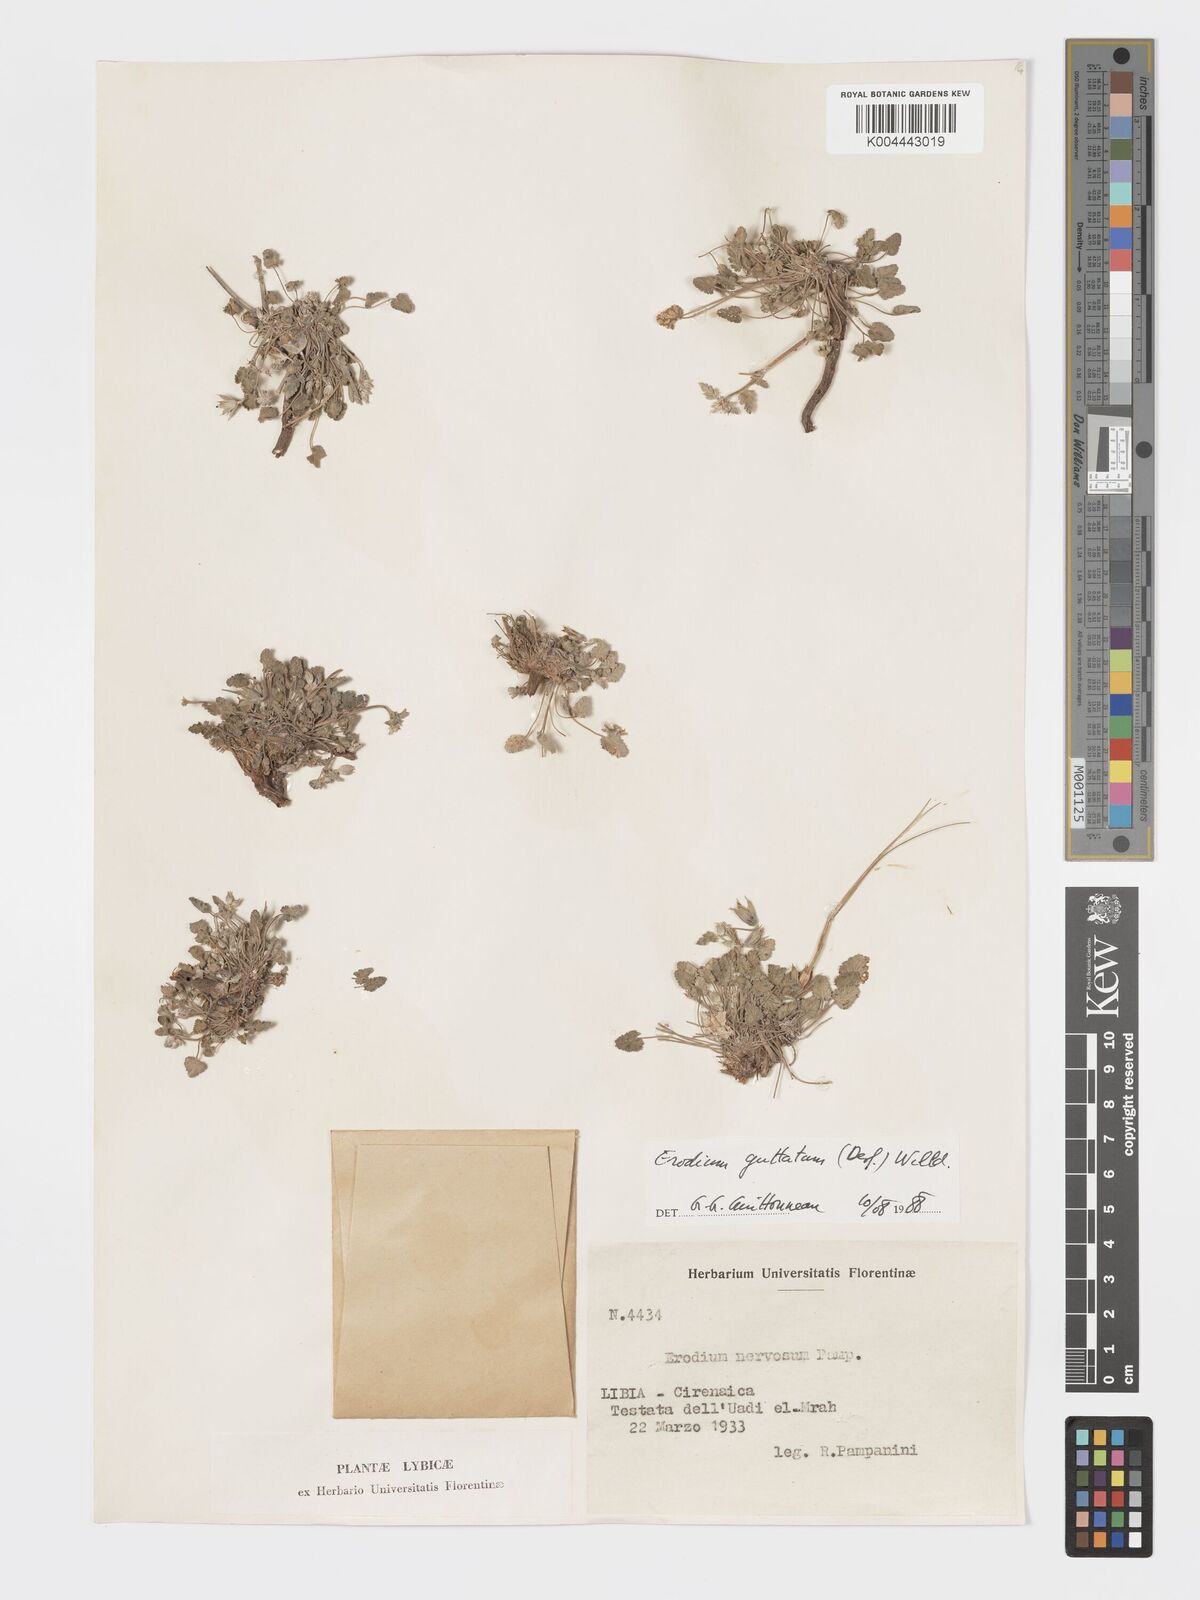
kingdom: Plantae
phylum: Tracheophyta
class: Magnoliopsida
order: Geraniales
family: Geraniaceae
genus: Erodium
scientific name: Erodium guttatum
